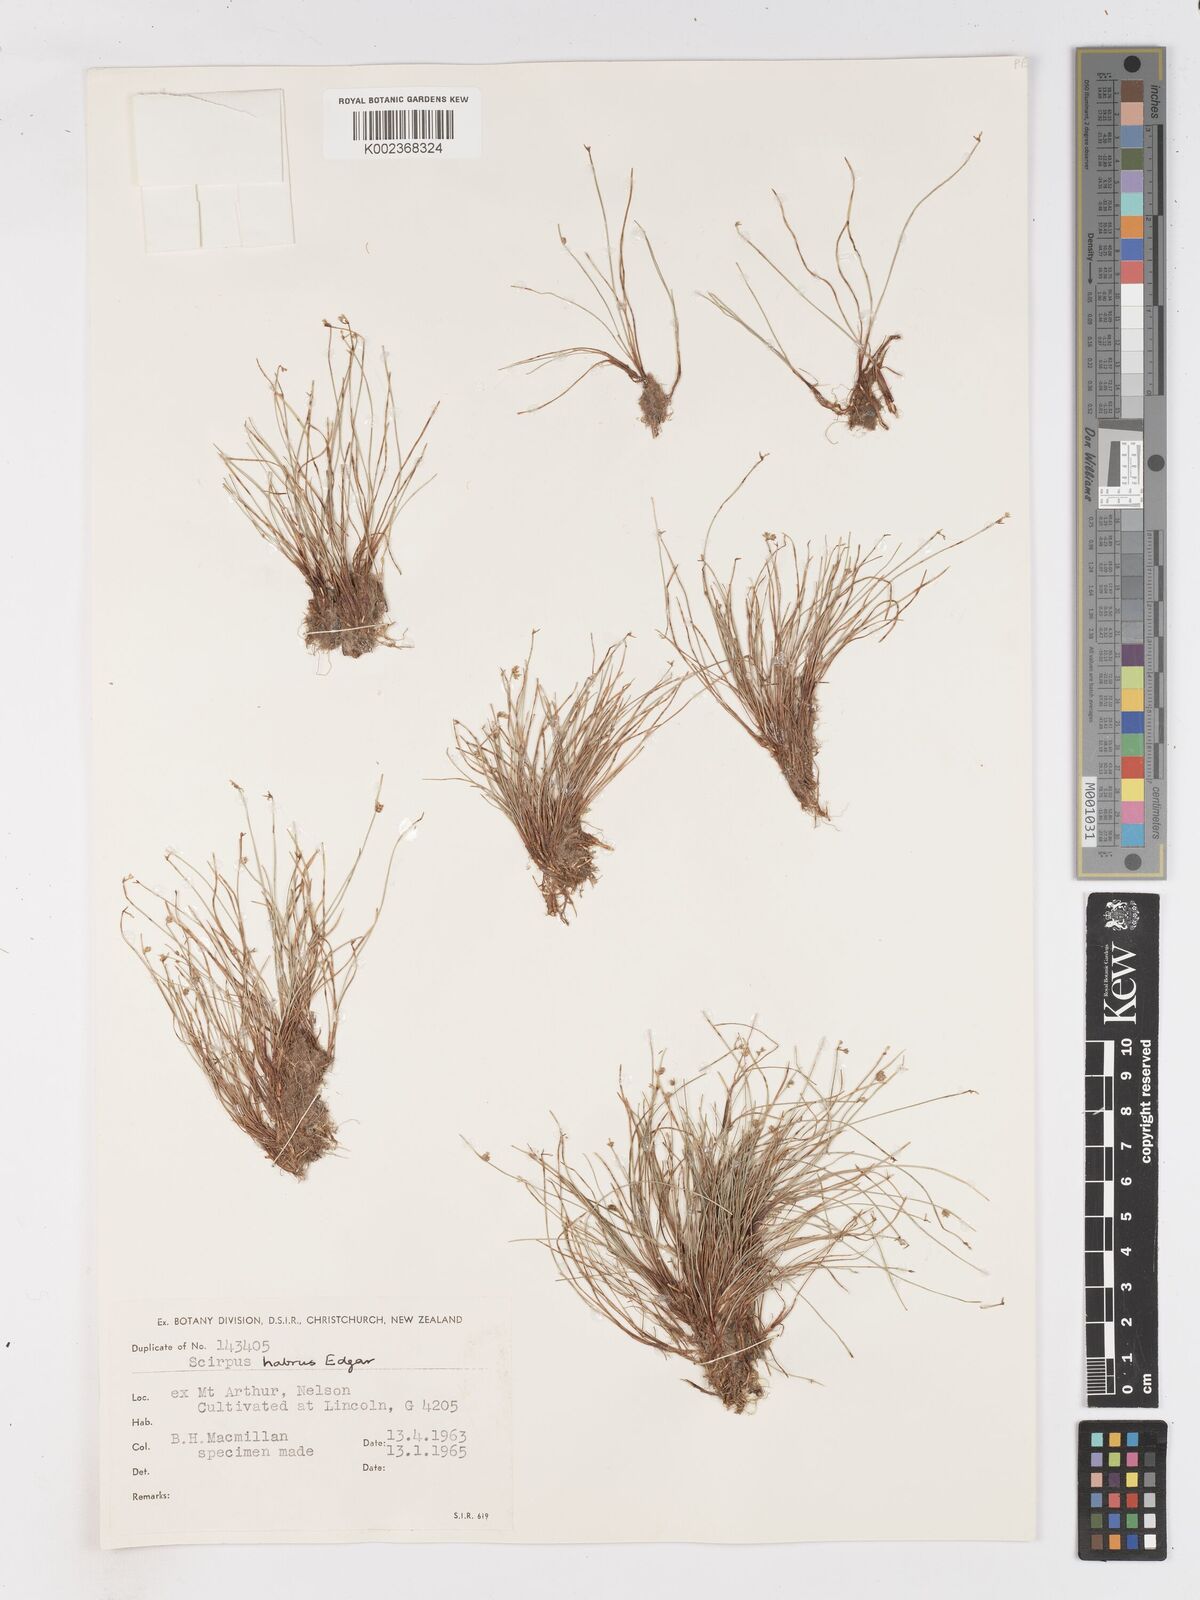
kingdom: Plantae
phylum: Tracheophyta
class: Liliopsida
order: Poales
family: Cyperaceae
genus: Isolepis
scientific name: Isolepis habra
